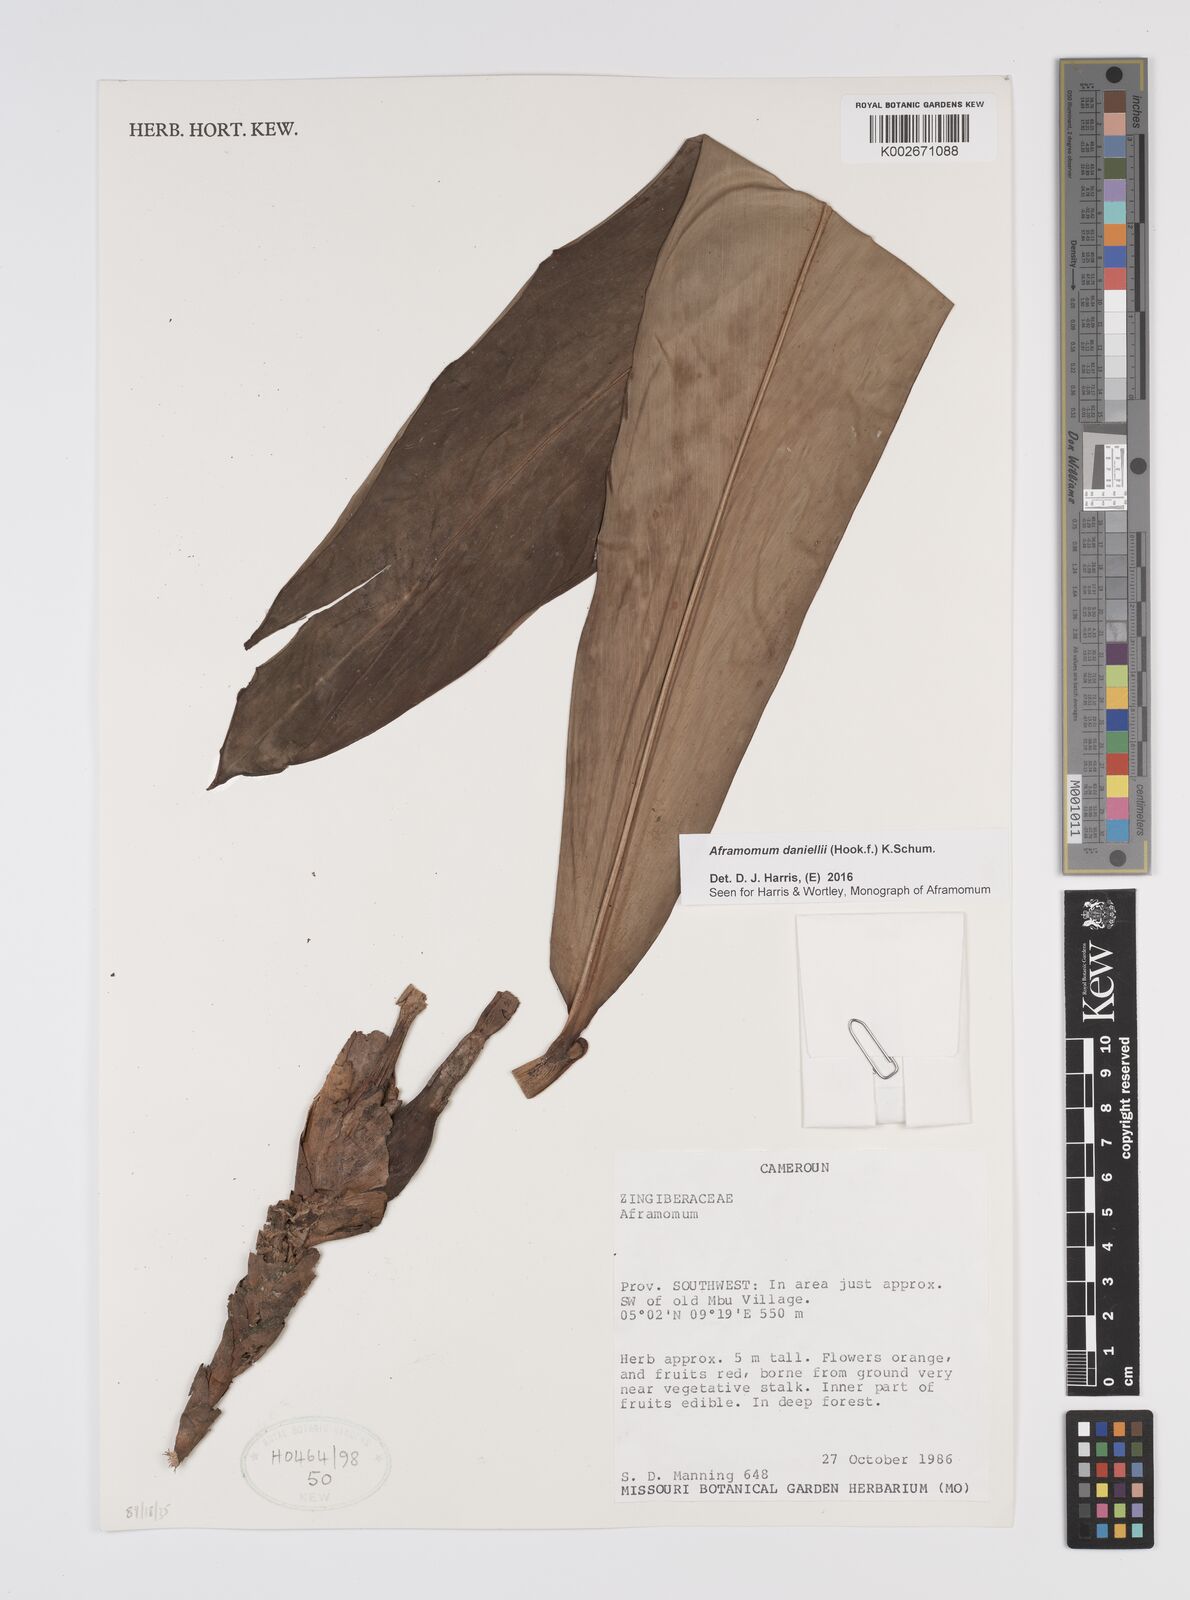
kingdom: Plantae
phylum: Tracheophyta
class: Liliopsida
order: Zingiberales
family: Zingiberaceae
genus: Aframomum
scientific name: Aframomum daniellii
